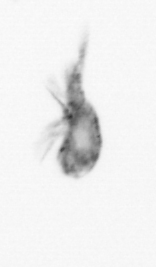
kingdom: Animalia
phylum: Arthropoda
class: Maxillopoda
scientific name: Maxillopoda
